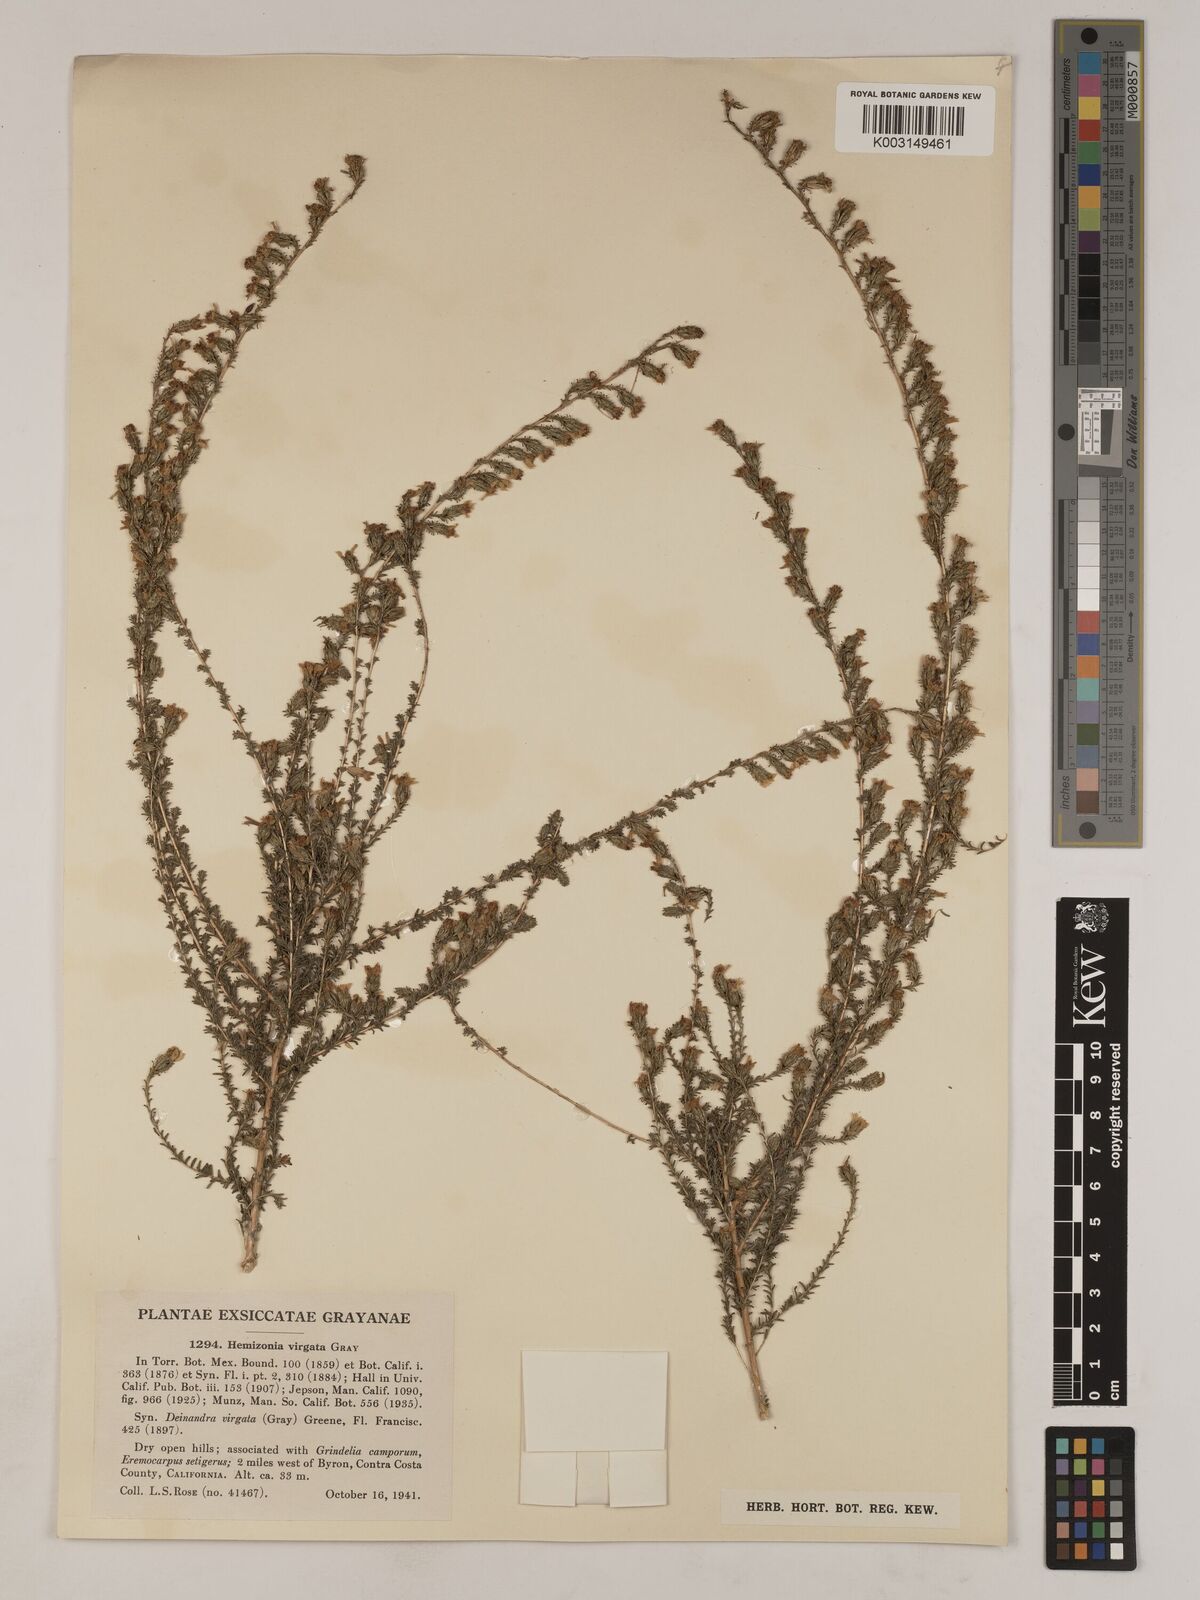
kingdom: Plantae
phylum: Tracheophyta
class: Magnoliopsida
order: Asterales
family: Asteraceae
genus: Holocarpha
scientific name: Holocarpha virgata
